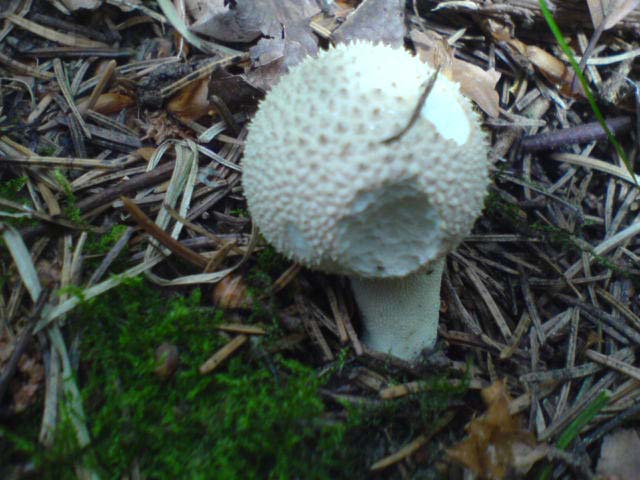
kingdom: Fungi
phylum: Basidiomycota
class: Agaricomycetes
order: Agaricales
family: Lycoperdaceae
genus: Lycoperdon
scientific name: Lycoperdon perlatum
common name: krystal-støvbold
